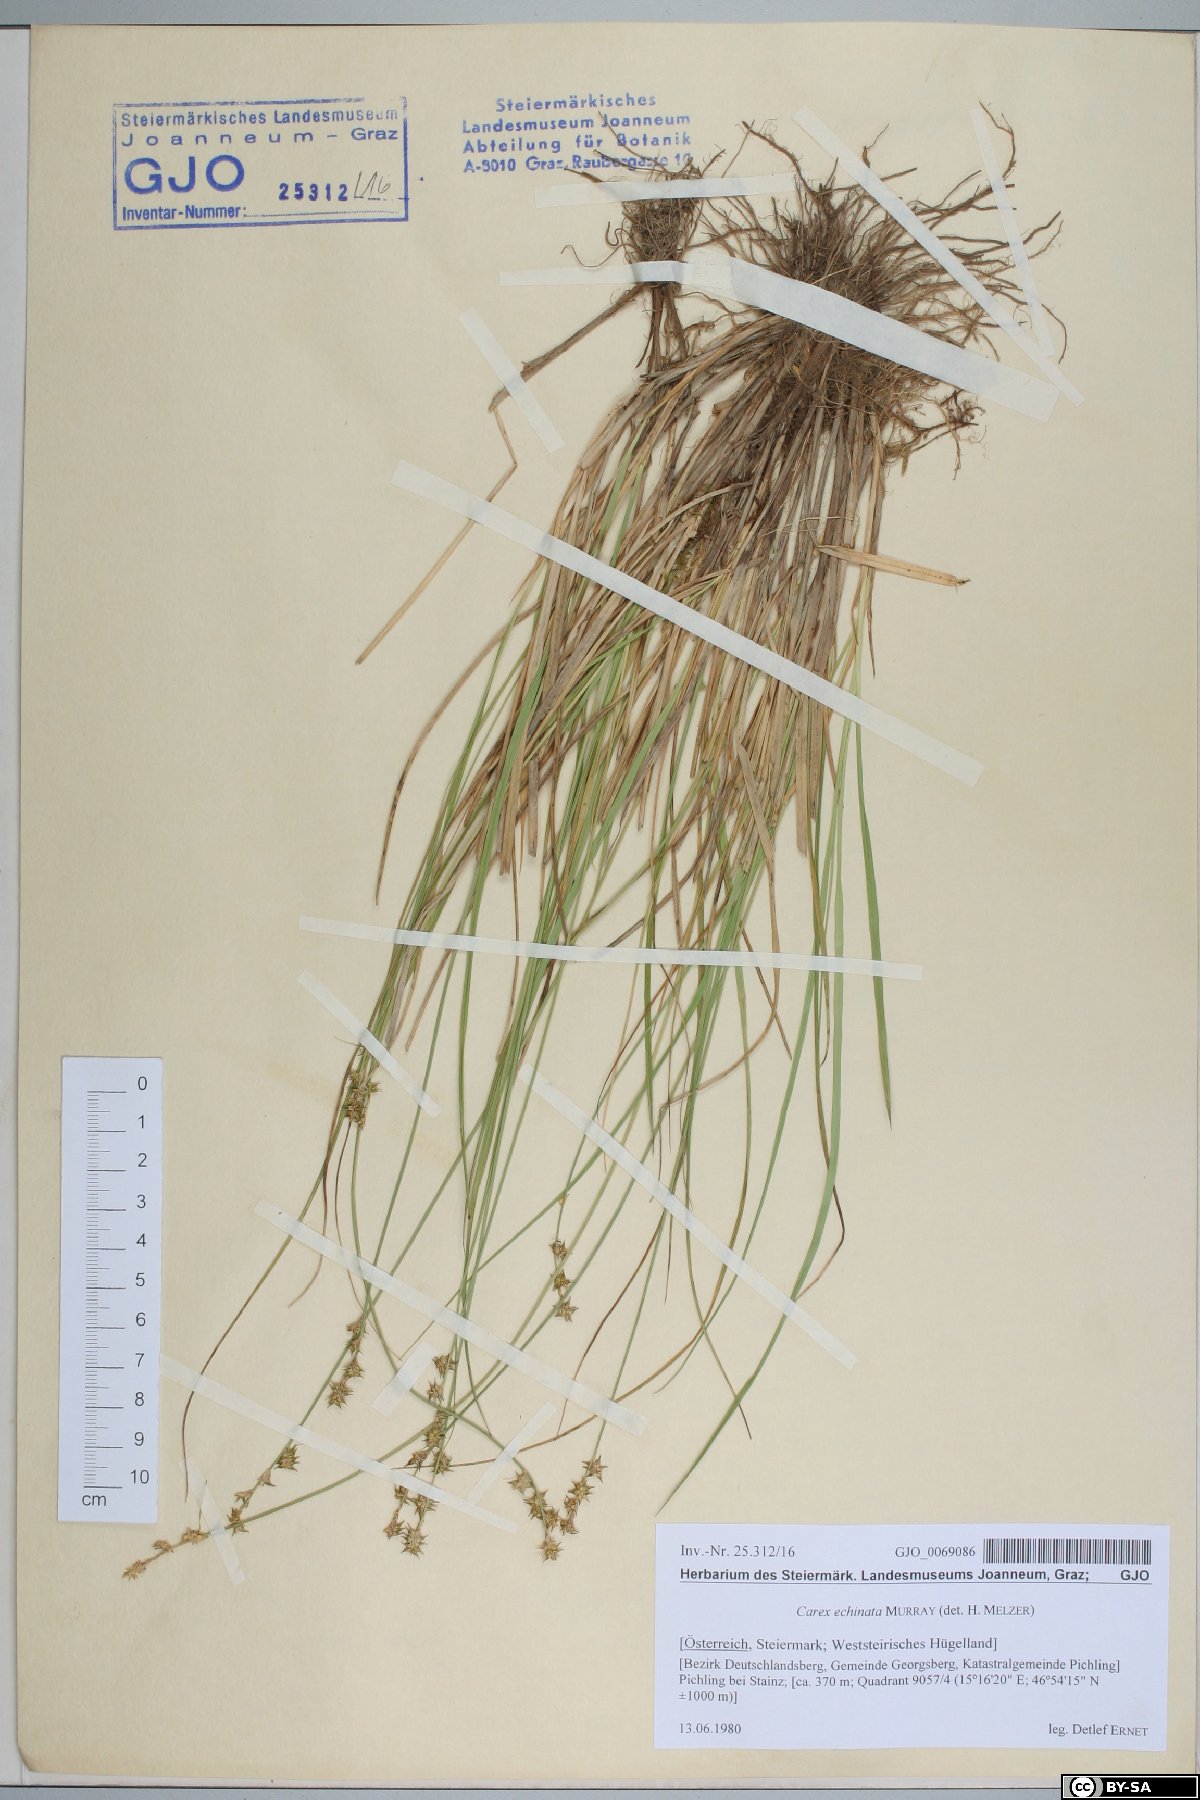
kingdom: Plantae
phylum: Tracheophyta
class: Liliopsida
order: Poales
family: Cyperaceae
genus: Carex
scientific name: Carex echinata
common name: Star sedge
